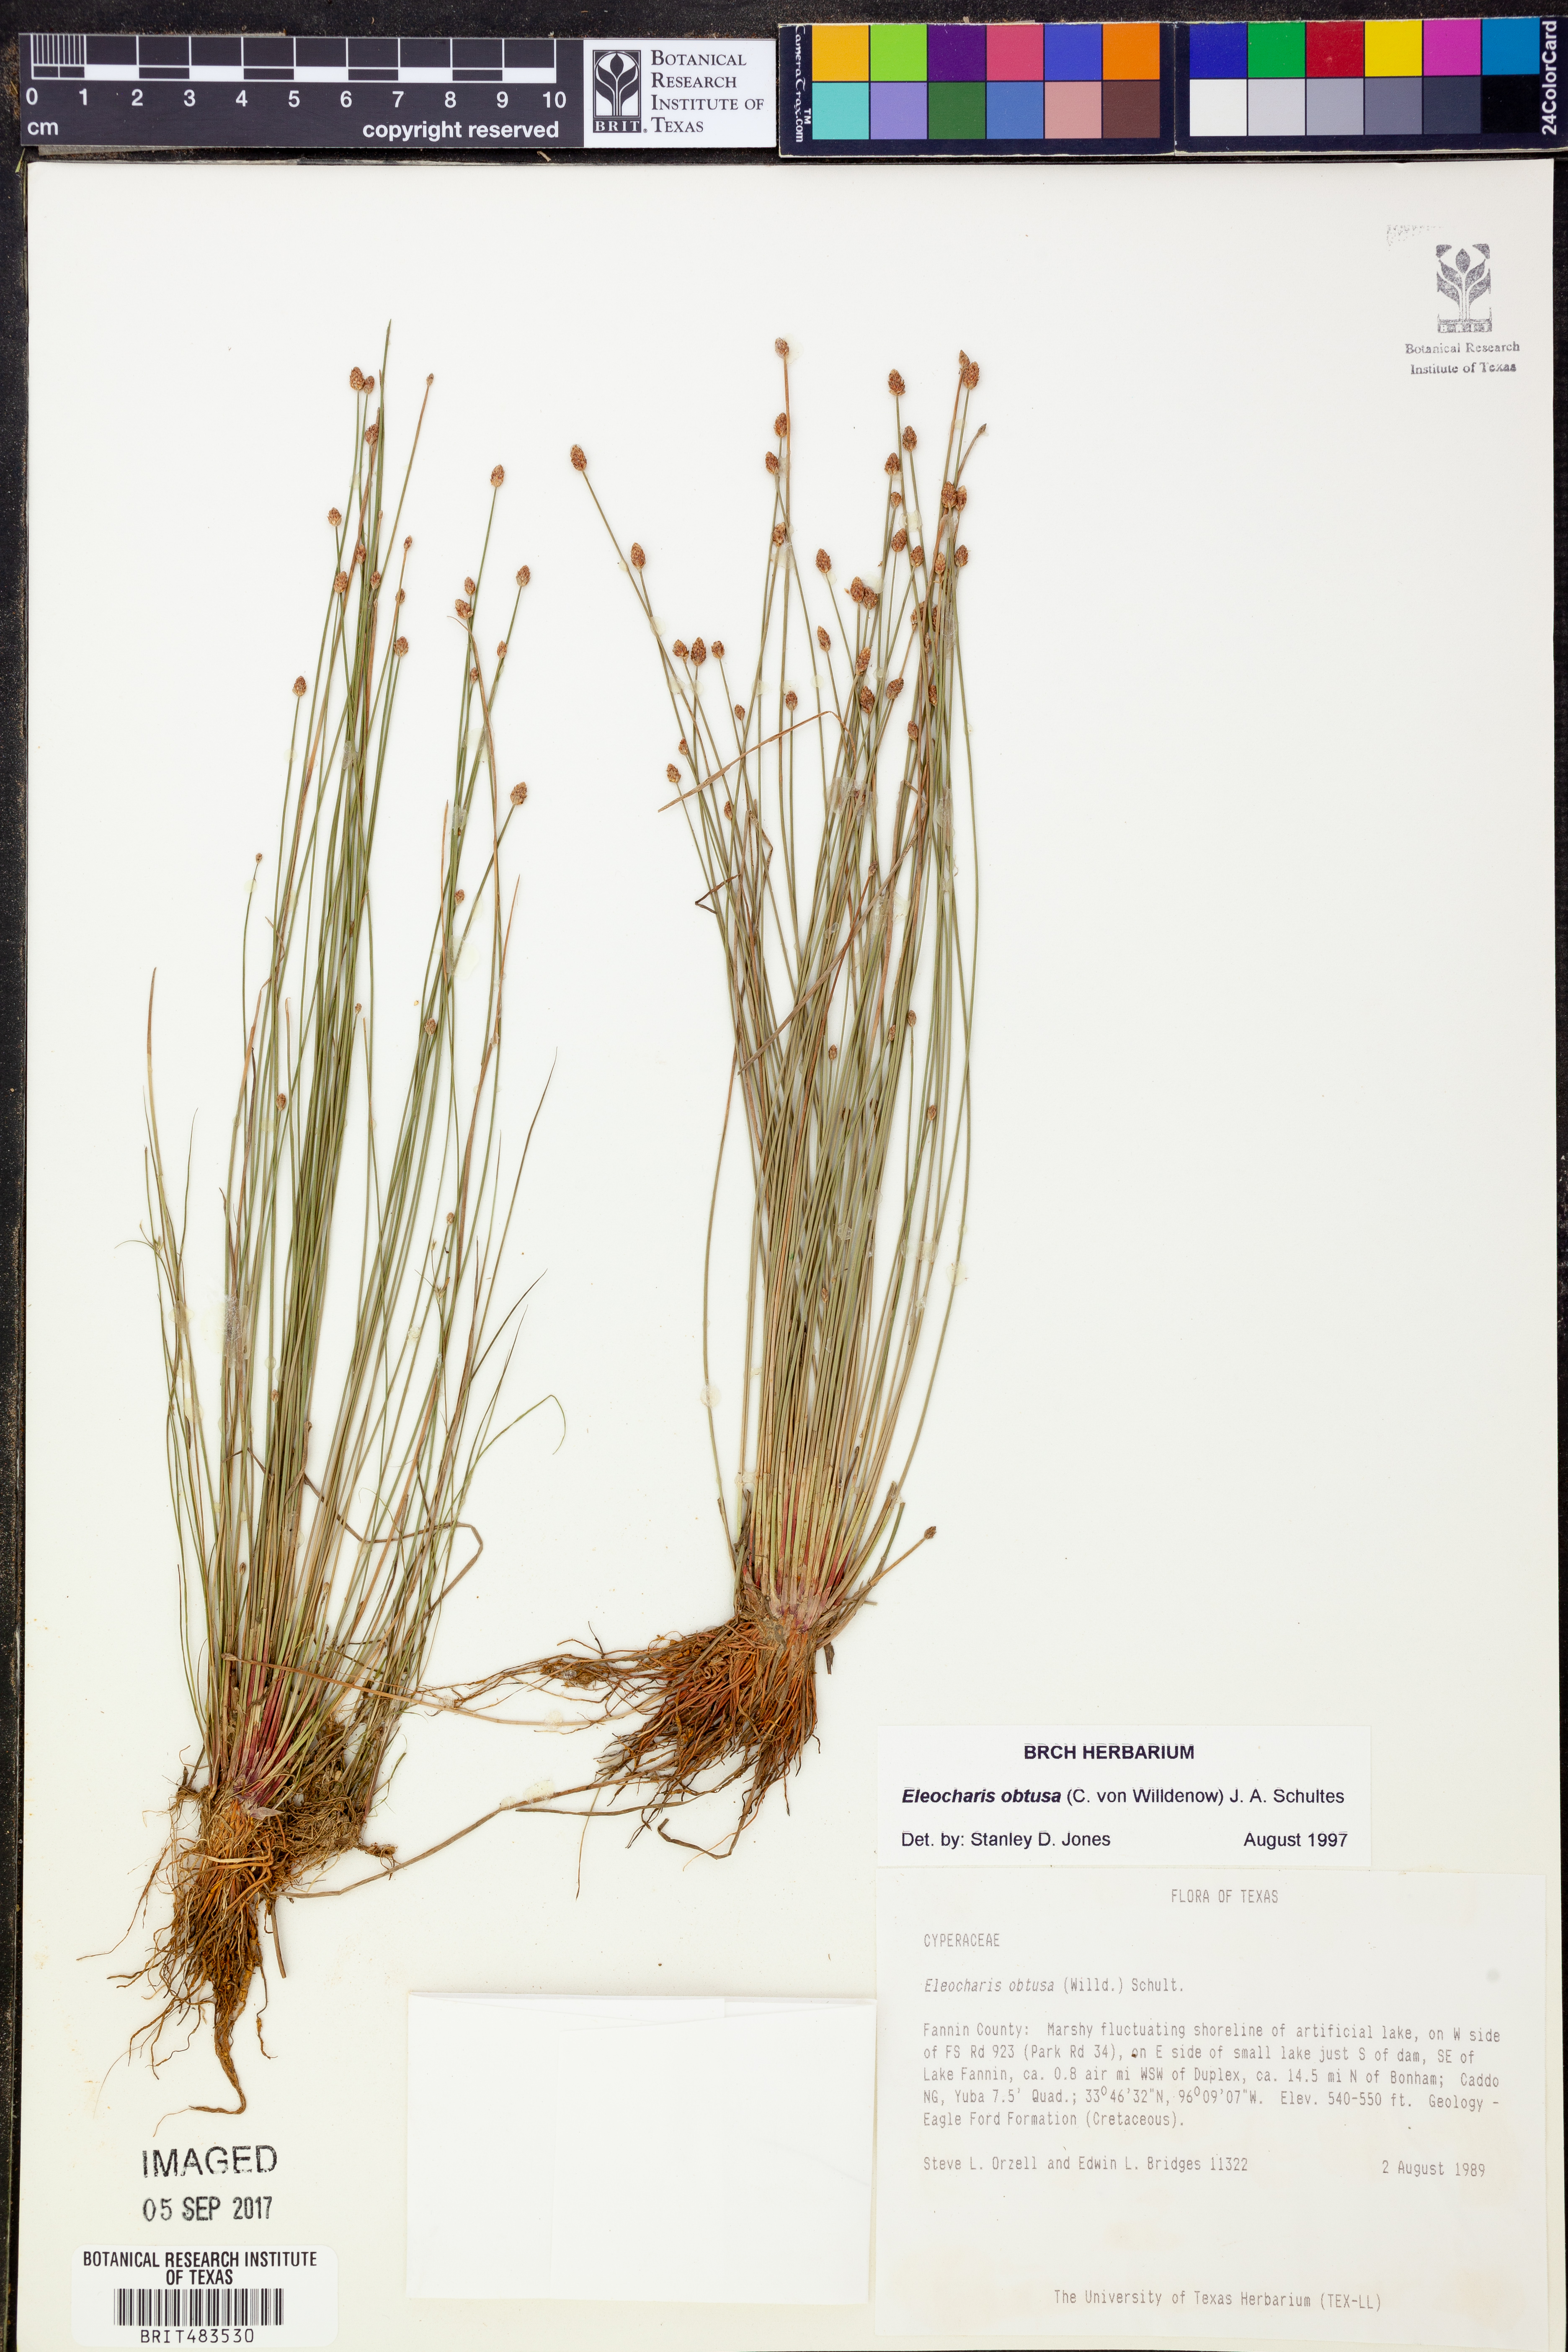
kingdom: Plantae
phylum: Tracheophyta
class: Liliopsida
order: Poales
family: Cyperaceae
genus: Eleocharis
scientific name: Eleocharis obtusa
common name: Blunt spikerush
